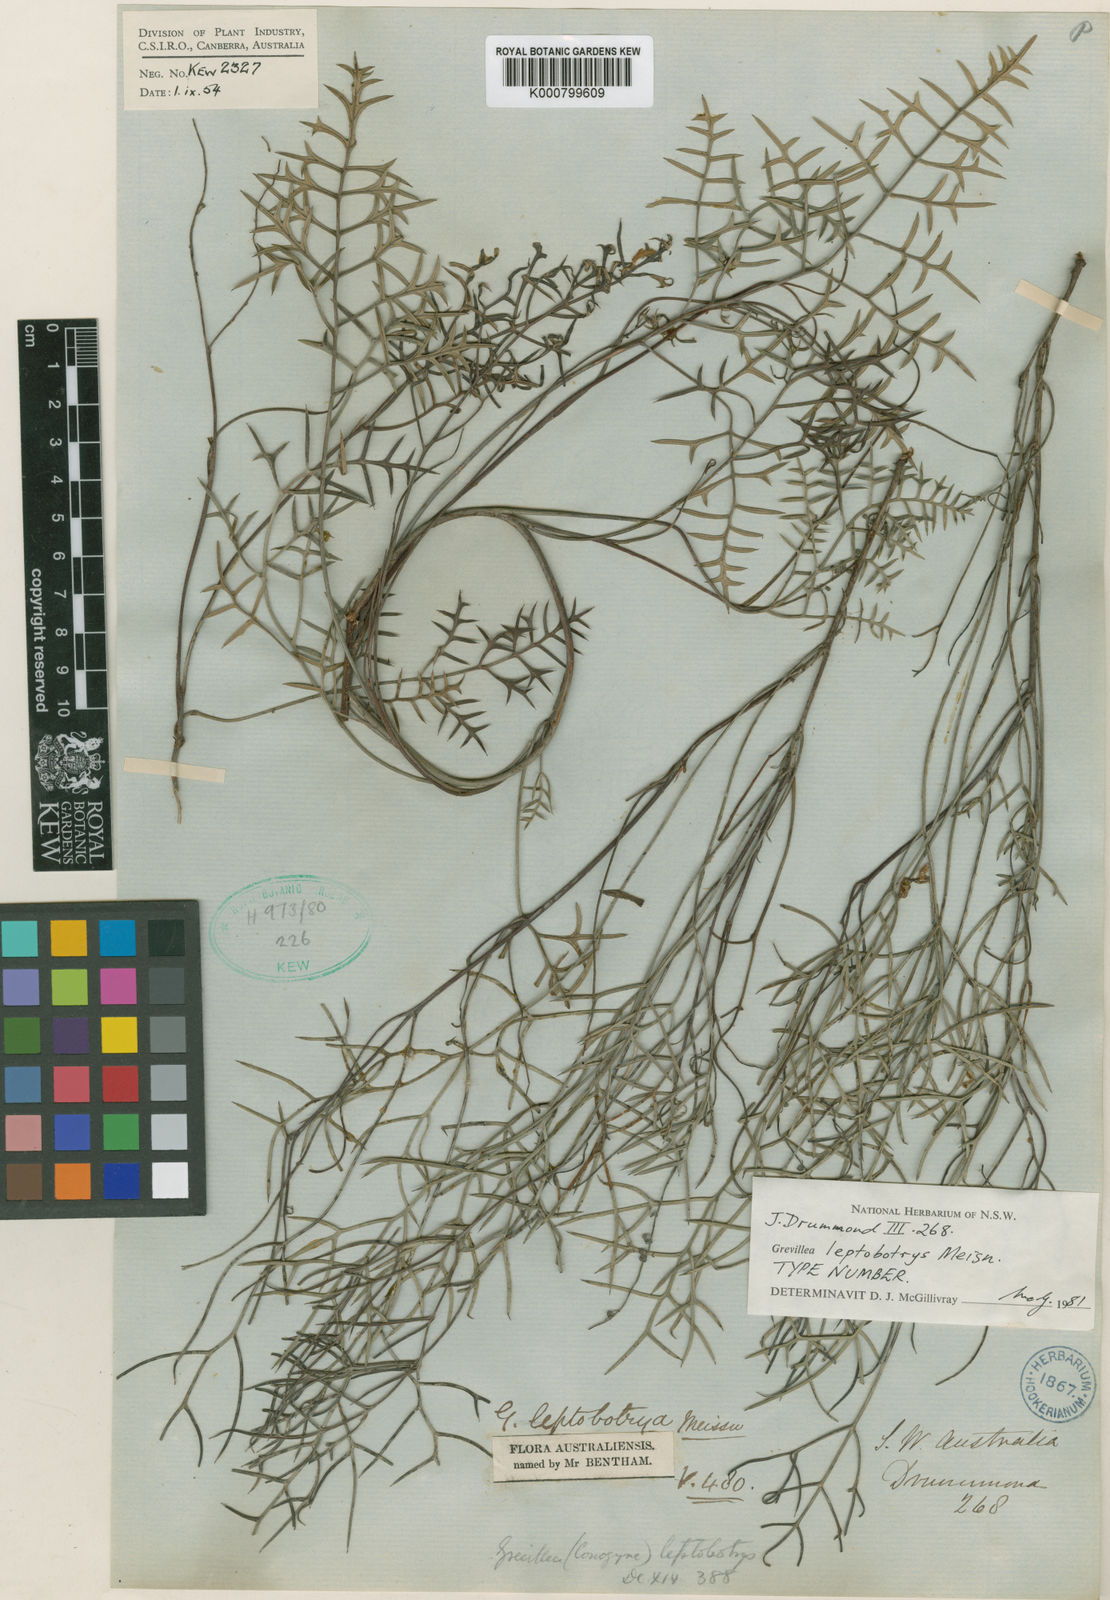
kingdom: Plantae
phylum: Tracheophyta
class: Magnoliopsida
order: Proteales
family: Proteaceae
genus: Grevillea
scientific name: Grevillea leptobotrys
